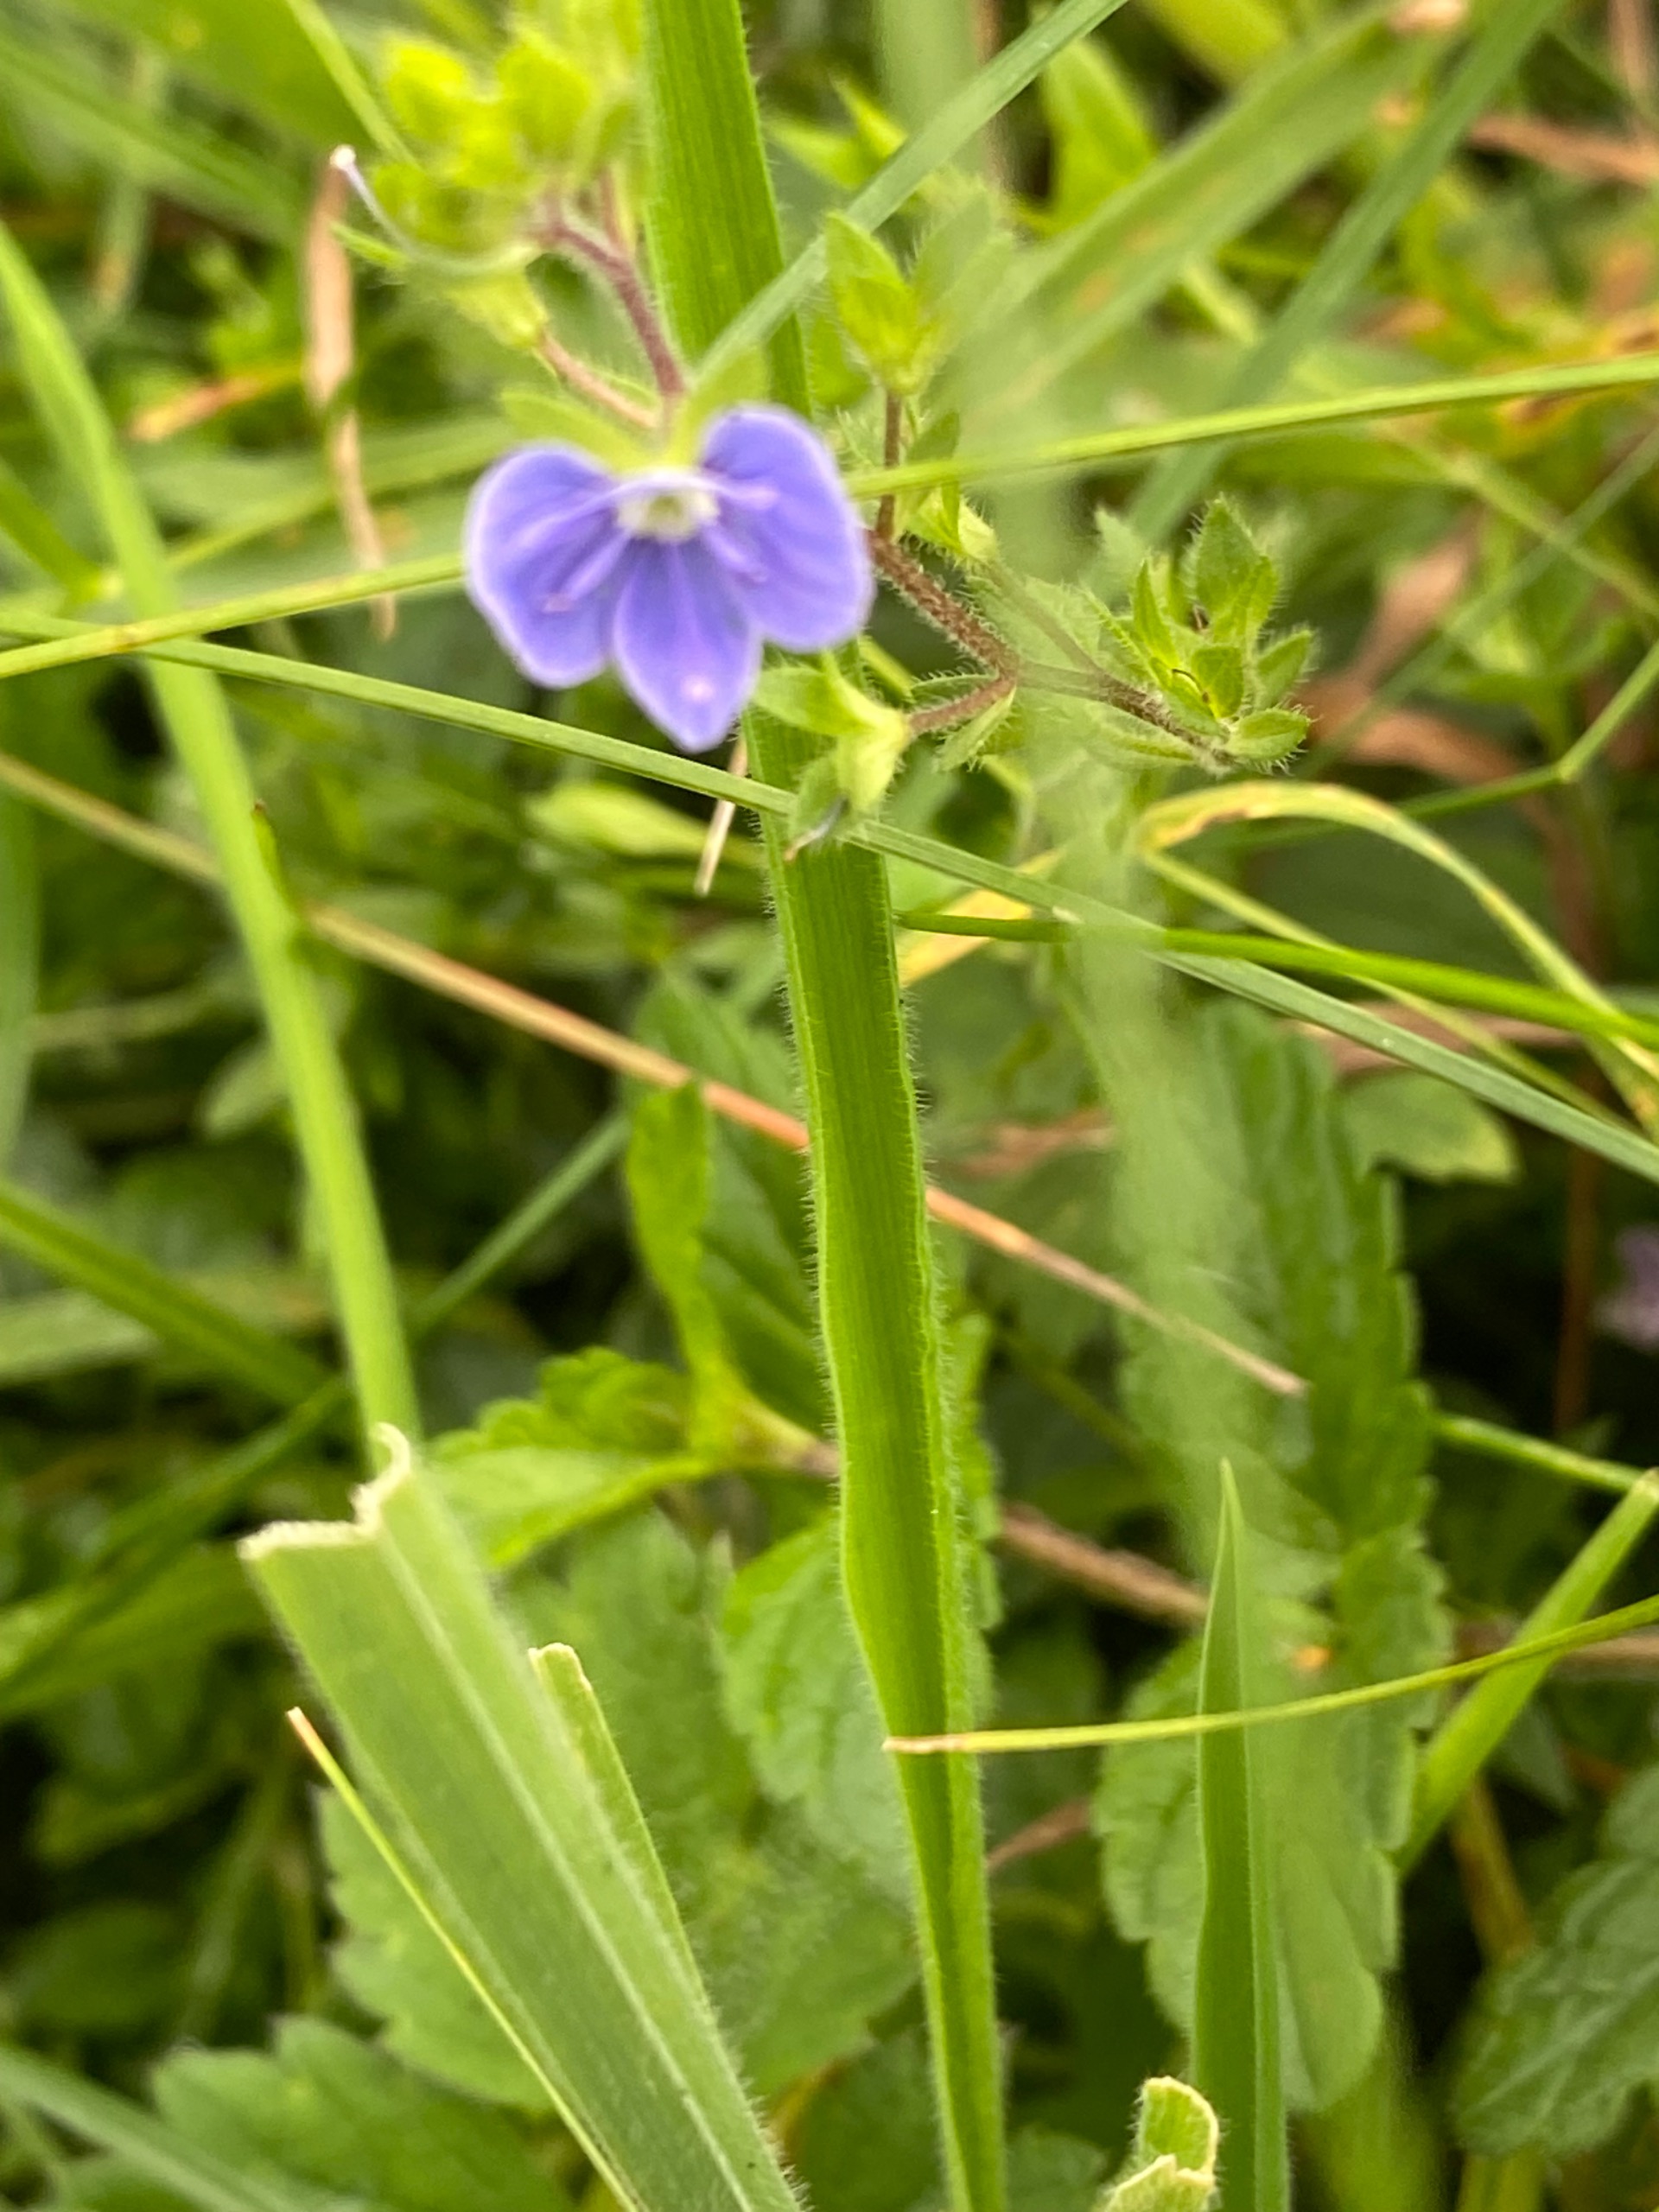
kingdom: Plantae
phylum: Tracheophyta
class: Magnoliopsida
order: Lamiales
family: Plantaginaceae
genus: Veronica
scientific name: Veronica chamaedrys
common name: Tveskægget ærenpris
